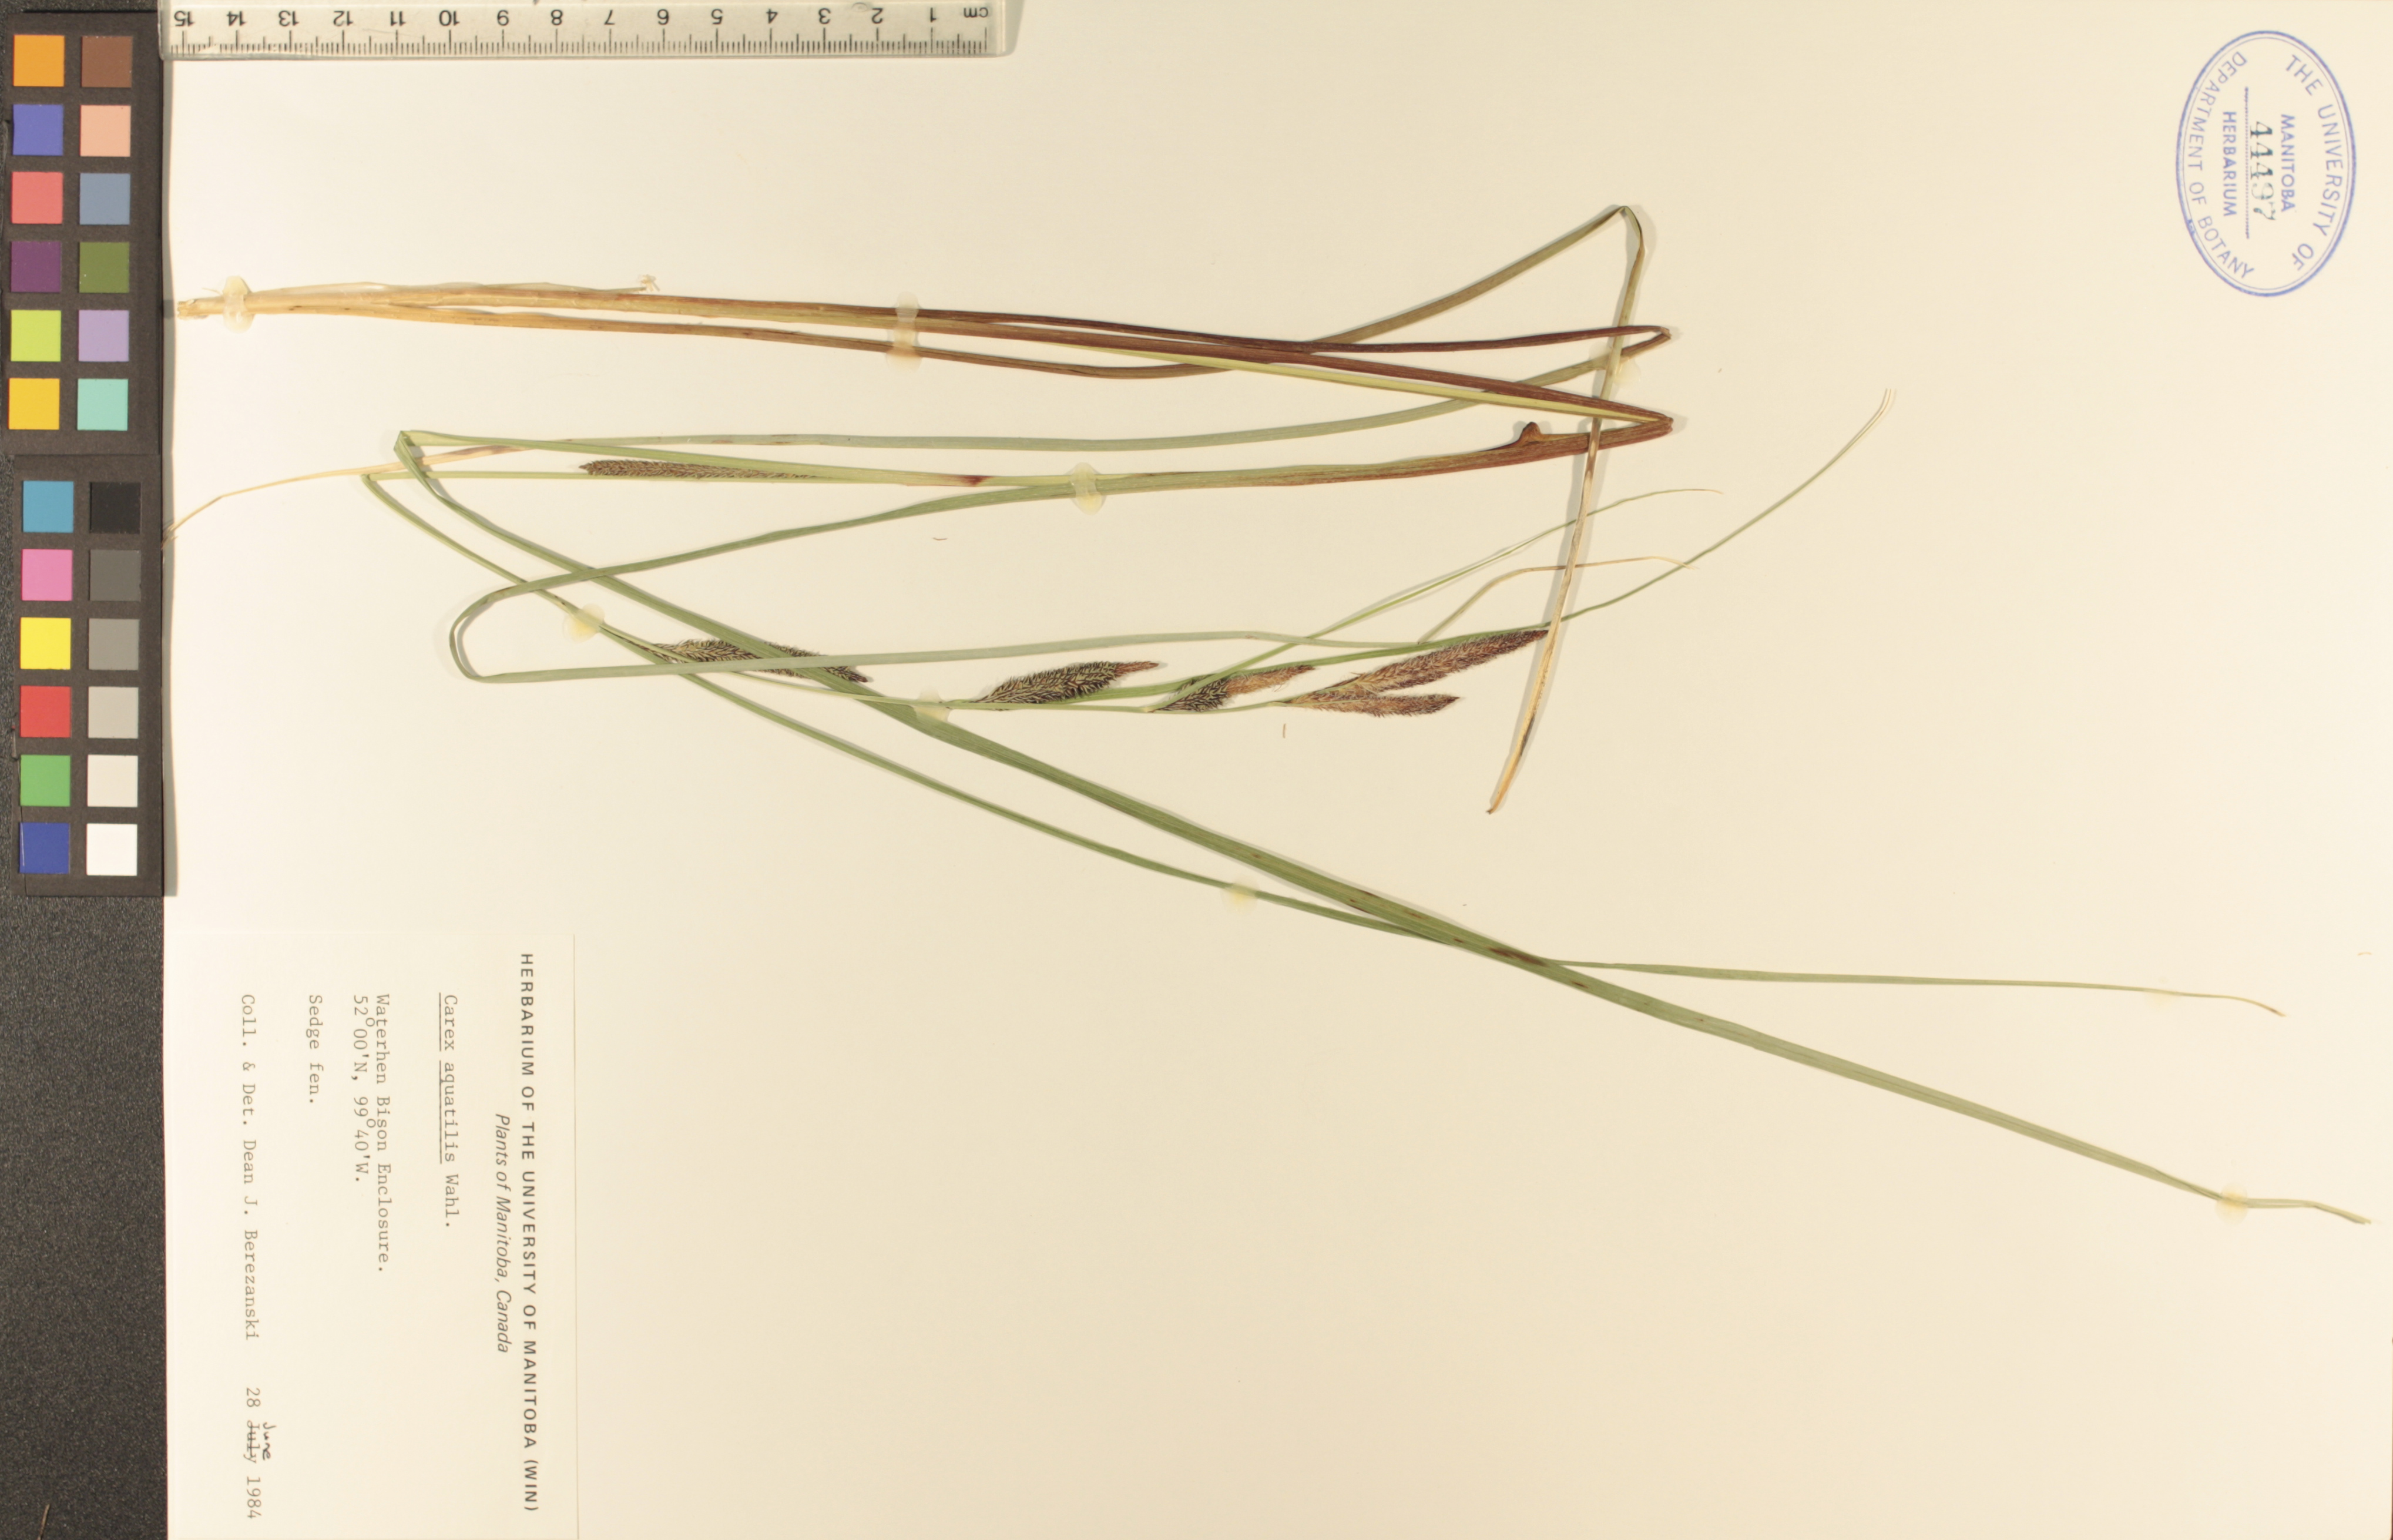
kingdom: Plantae
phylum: Tracheophyta
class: Liliopsida
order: Poales
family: Cyperaceae
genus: Carex
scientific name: Carex aquatilis
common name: Water sedge
